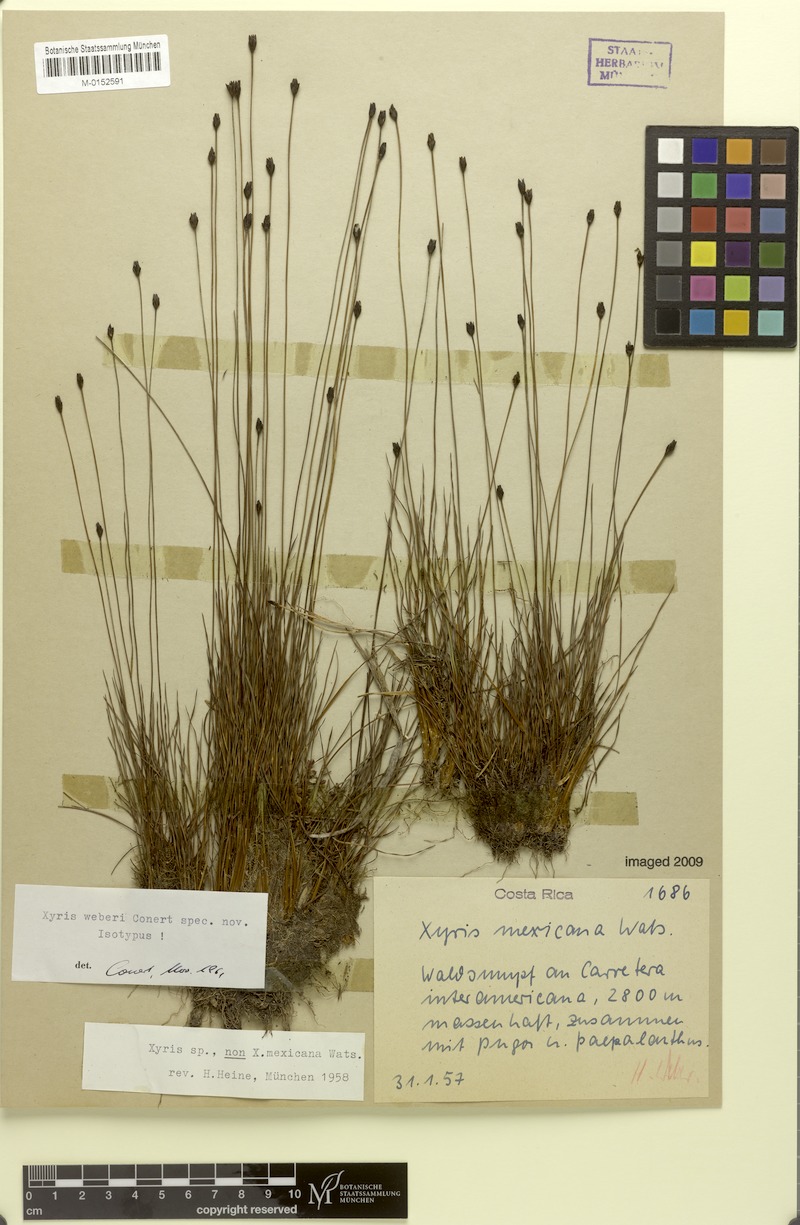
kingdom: Plantae
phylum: Tracheophyta
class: Liliopsida
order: Poales
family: Xyridaceae
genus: Xyris
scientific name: Xyris subulata
